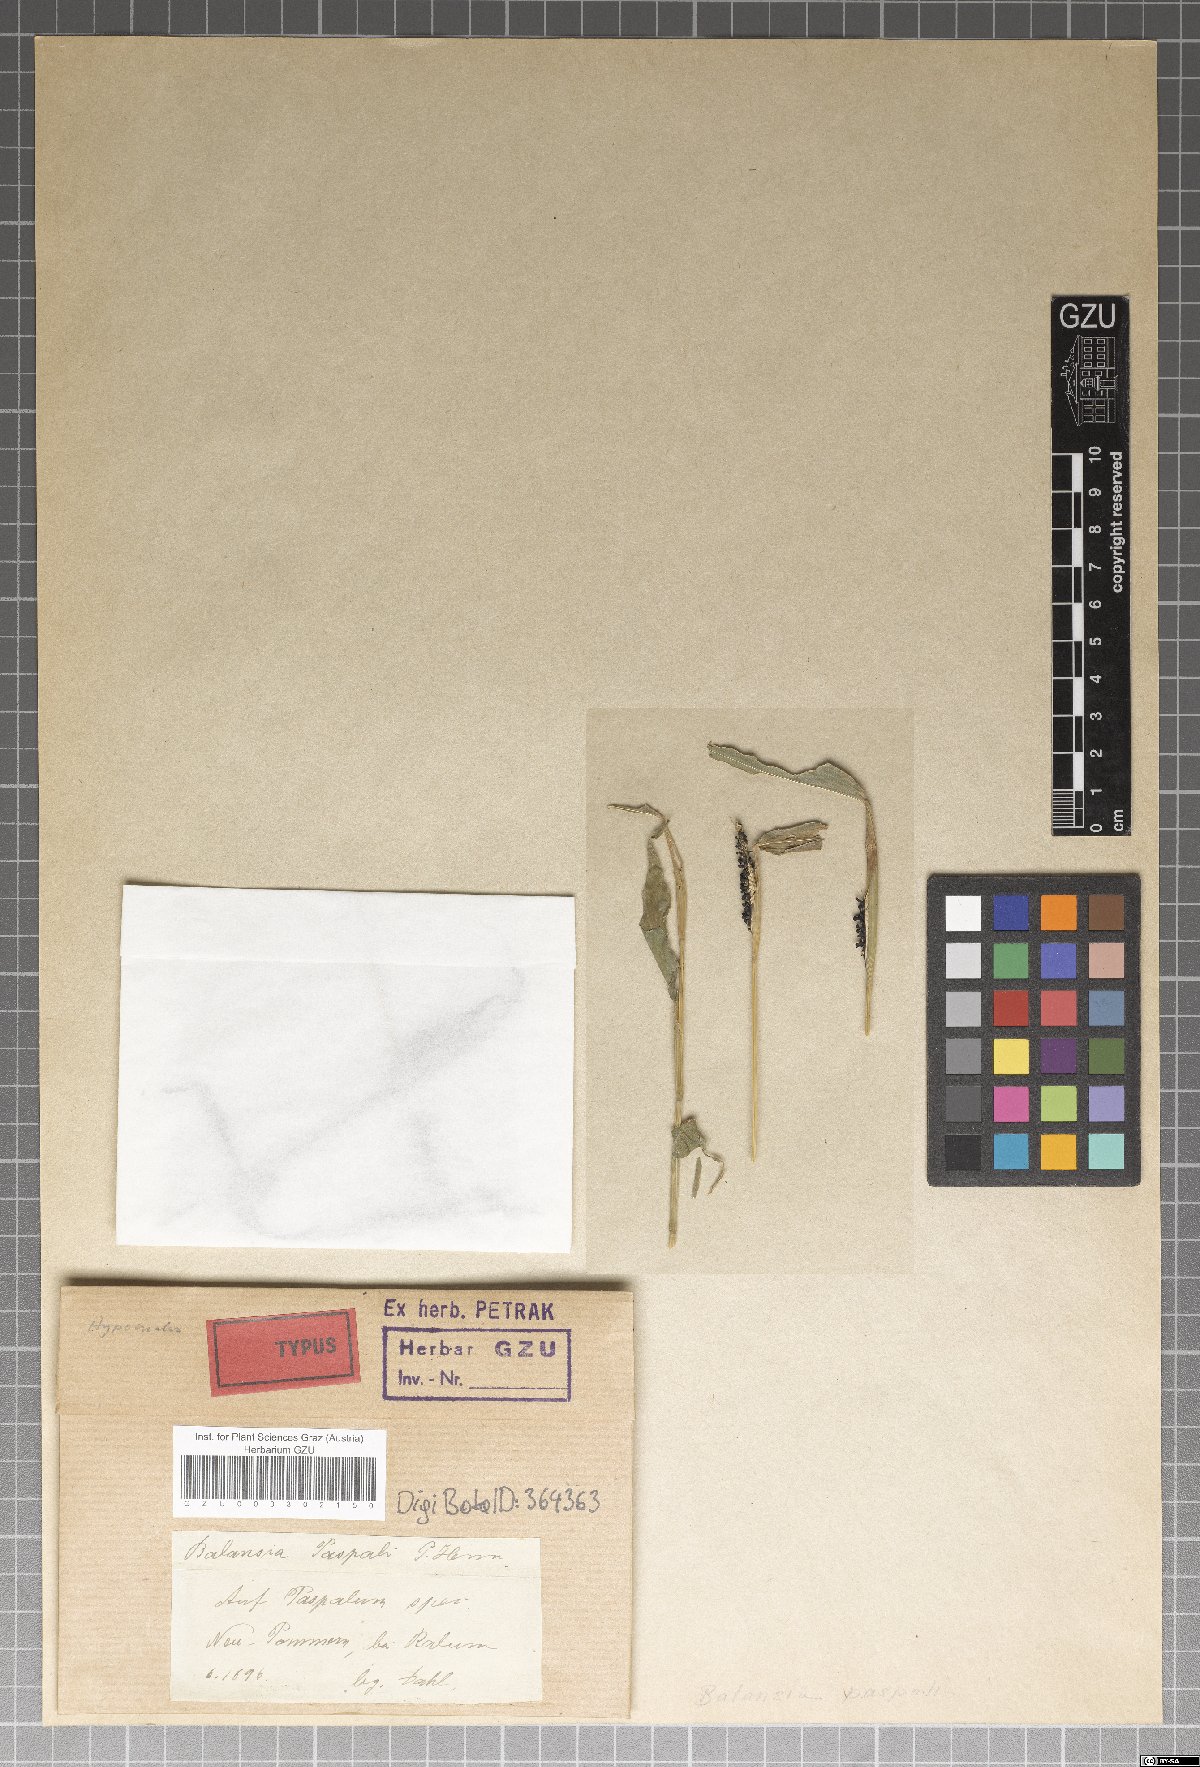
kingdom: Fungi
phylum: Ascomycota
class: Sordariomycetes
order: Hypocreales
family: Clavicipitaceae
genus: Balansia
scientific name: Balansia
